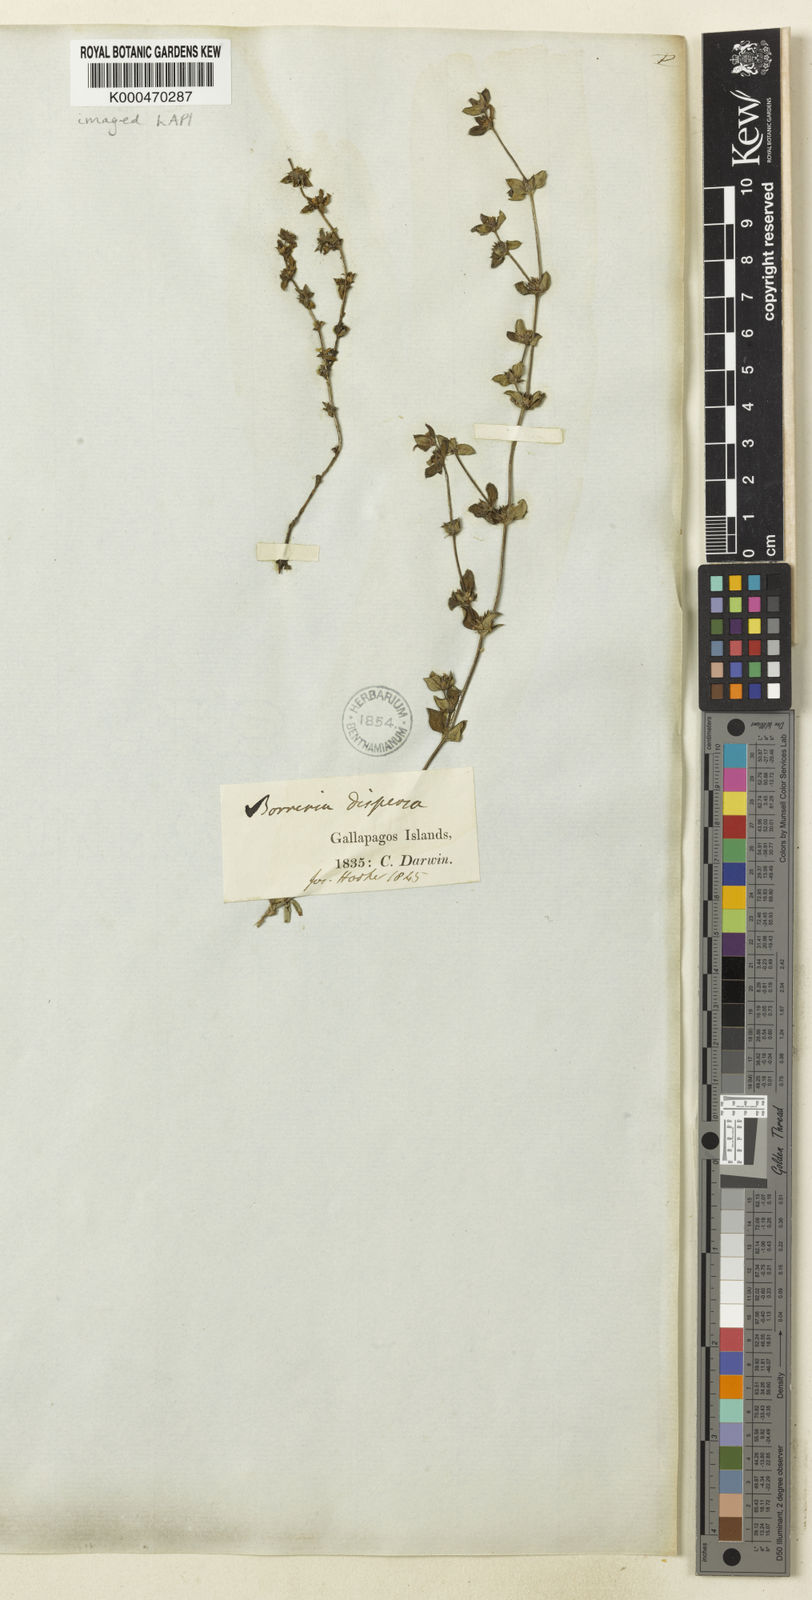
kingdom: Plantae
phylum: Tracheophyta
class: Magnoliopsida
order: Gentianales
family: Rubiaceae
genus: Spermacoce
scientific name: Spermacoce dispersa
